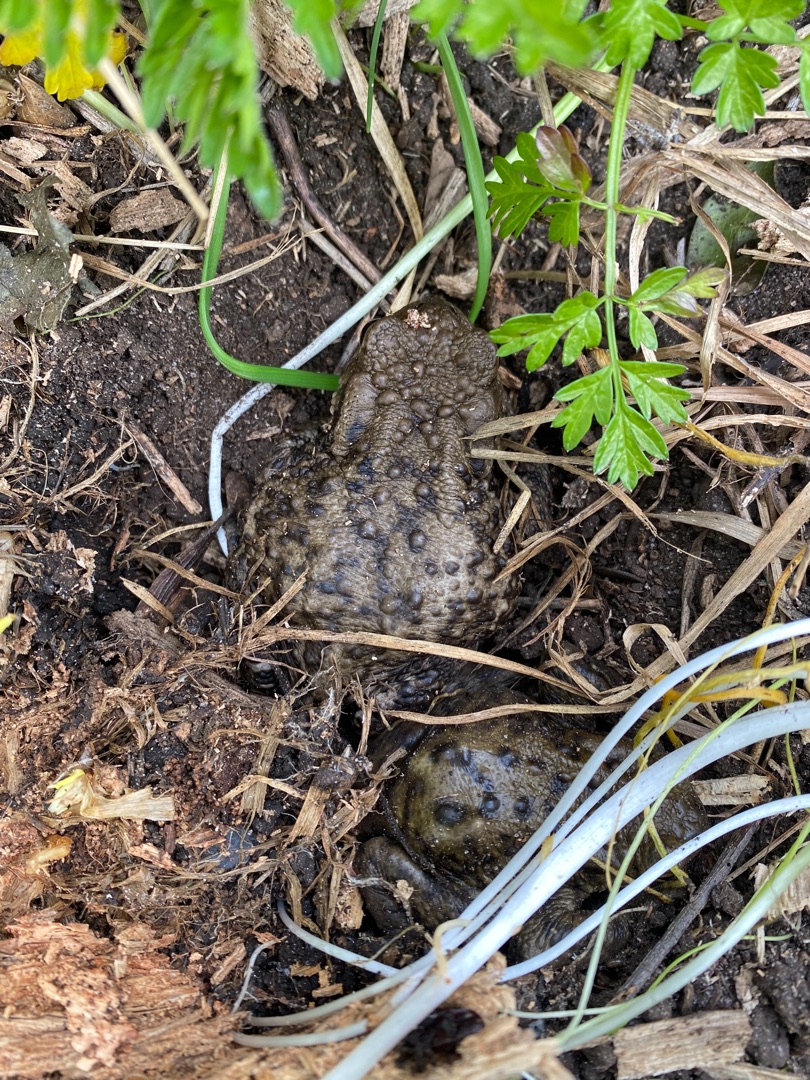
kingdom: Animalia
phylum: Chordata
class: Amphibia
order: Anura
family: Bufonidae
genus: Bufo
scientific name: Bufo bufo
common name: Skrubtudse
